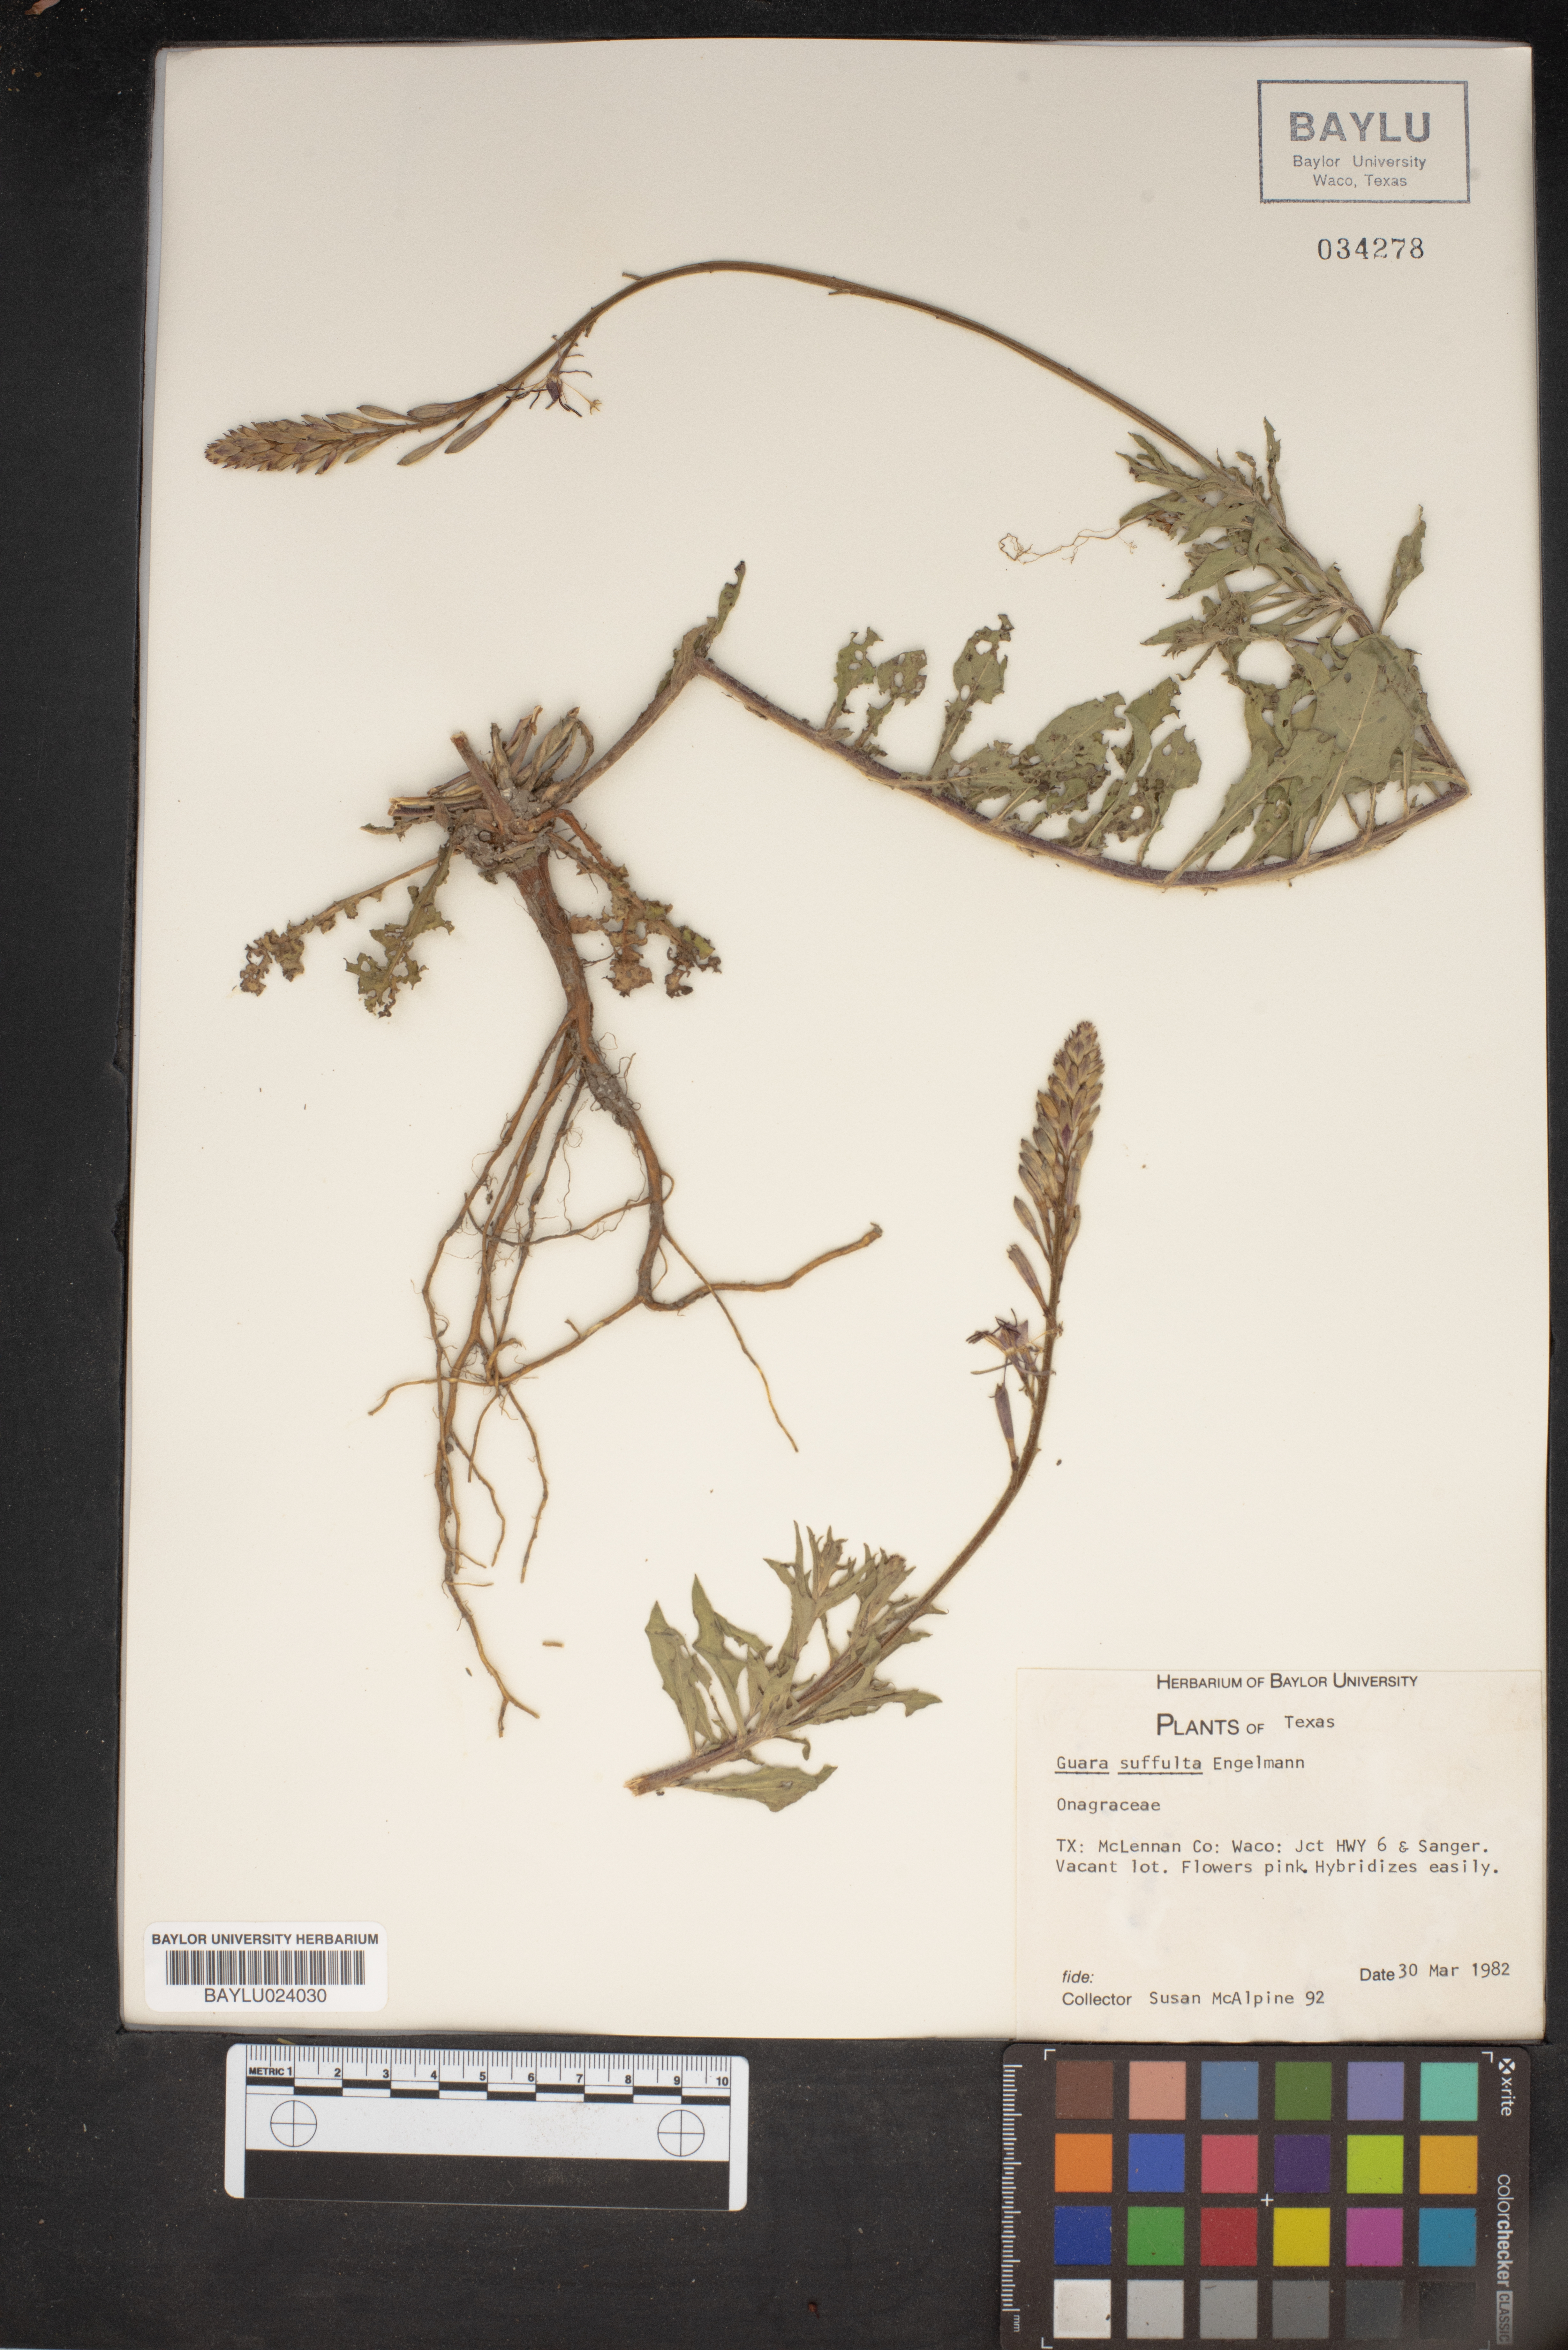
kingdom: Plantae
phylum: Tracheophyta
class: Magnoliopsida
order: Myrtales
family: Onagraceae
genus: Oenothera
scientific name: Oenothera Gaura suffulta
